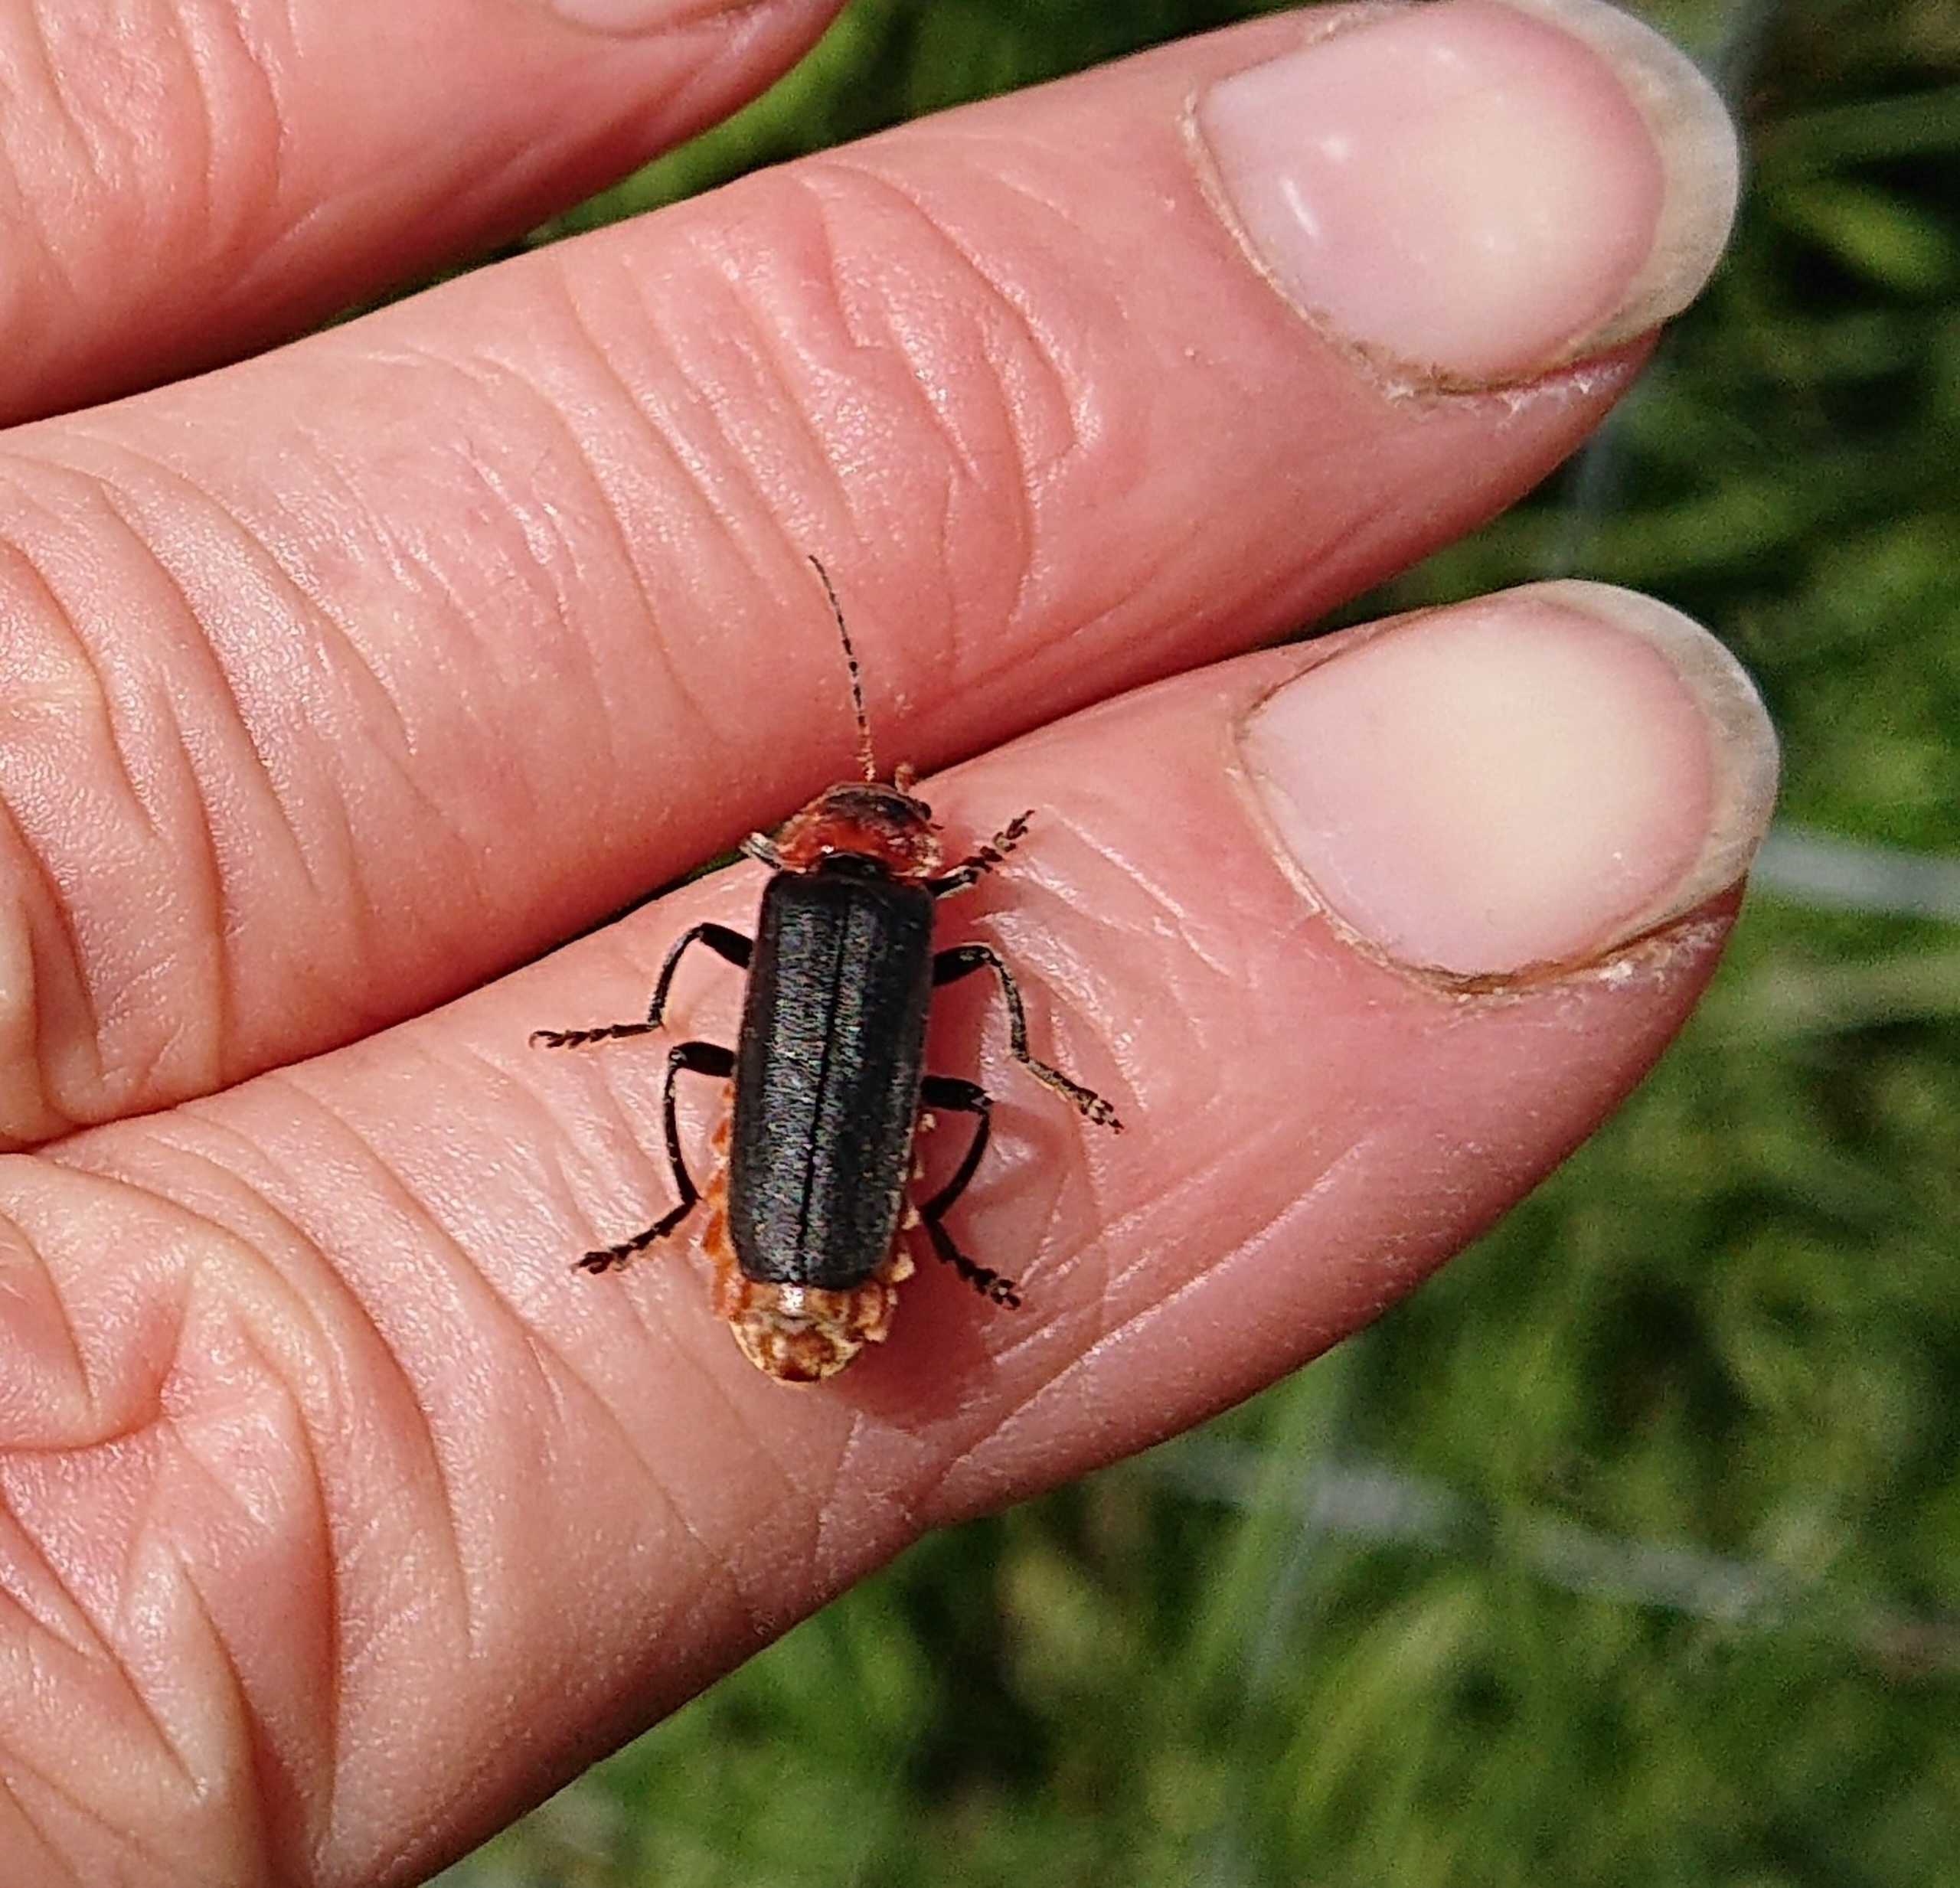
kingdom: Animalia
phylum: Arthropoda
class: Insecta
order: Coleoptera
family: Cantharidae
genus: Cantharis
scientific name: Cantharis fusca
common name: Stor blødvinge
